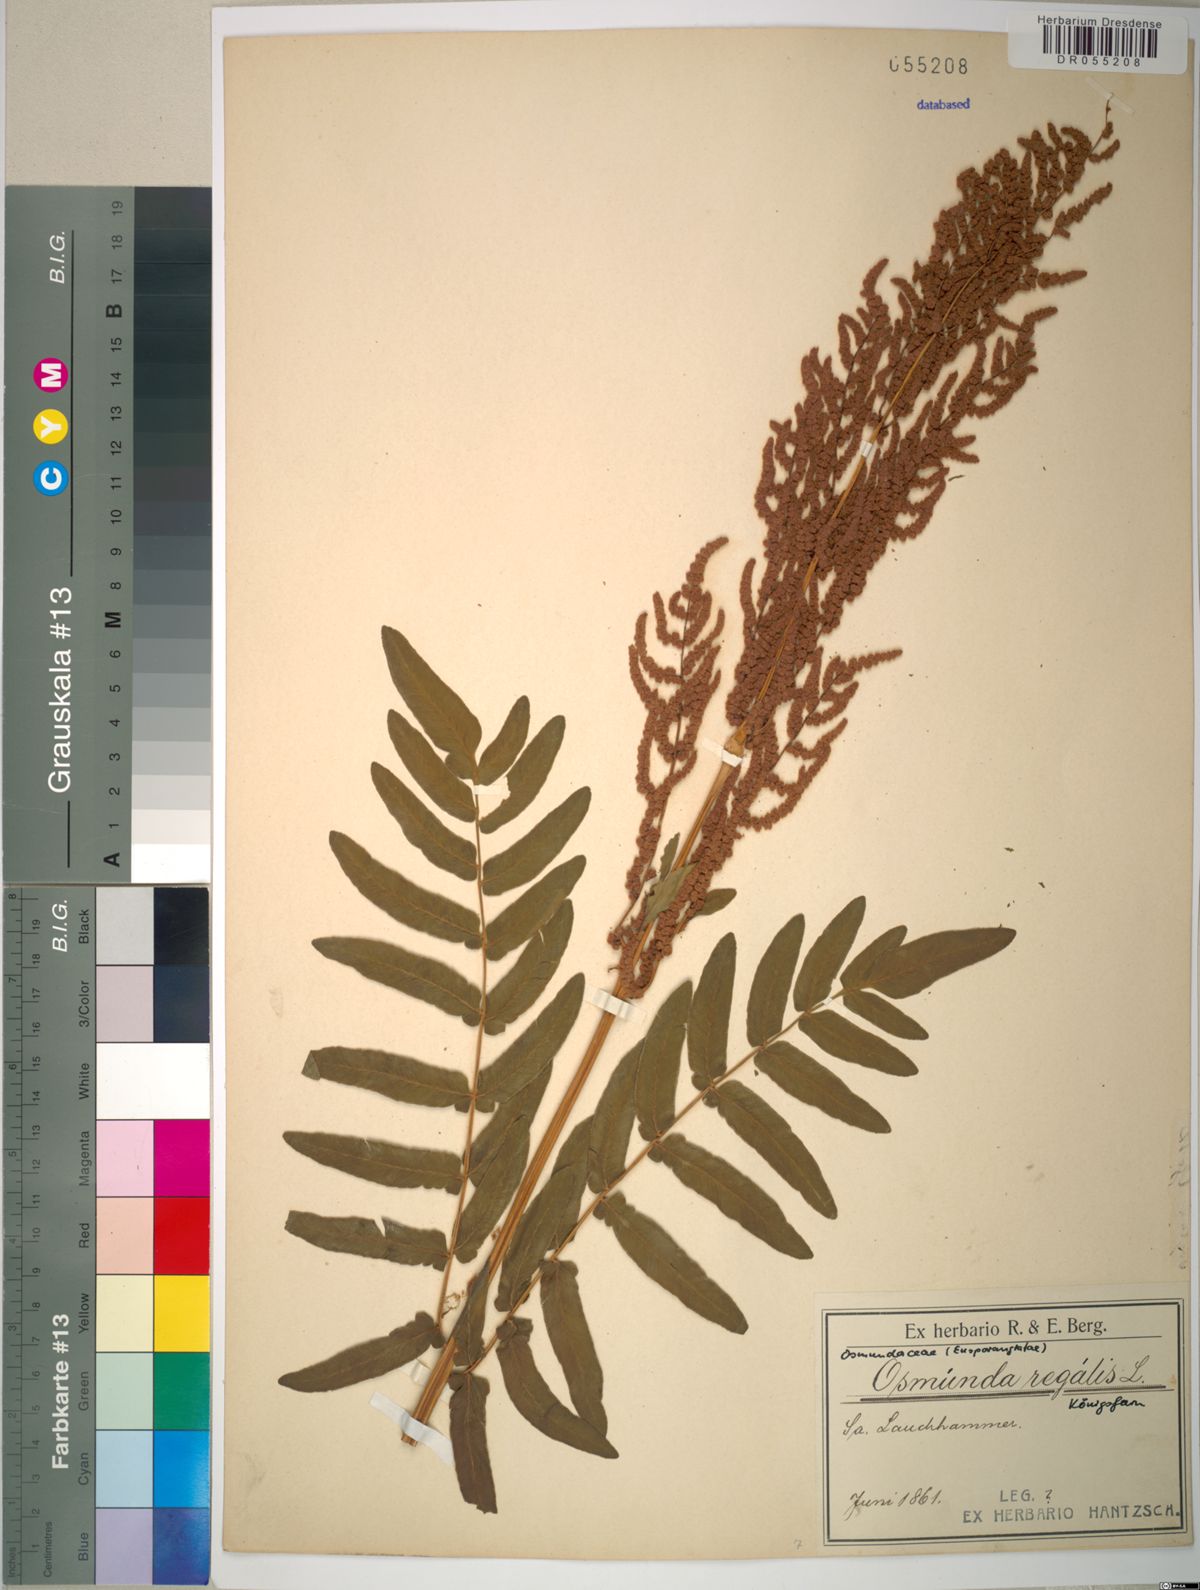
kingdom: Plantae
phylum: Tracheophyta
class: Polypodiopsida
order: Osmundales
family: Osmundaceae
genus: Osmunda
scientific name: Osmunda regalis
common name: Royal fern
